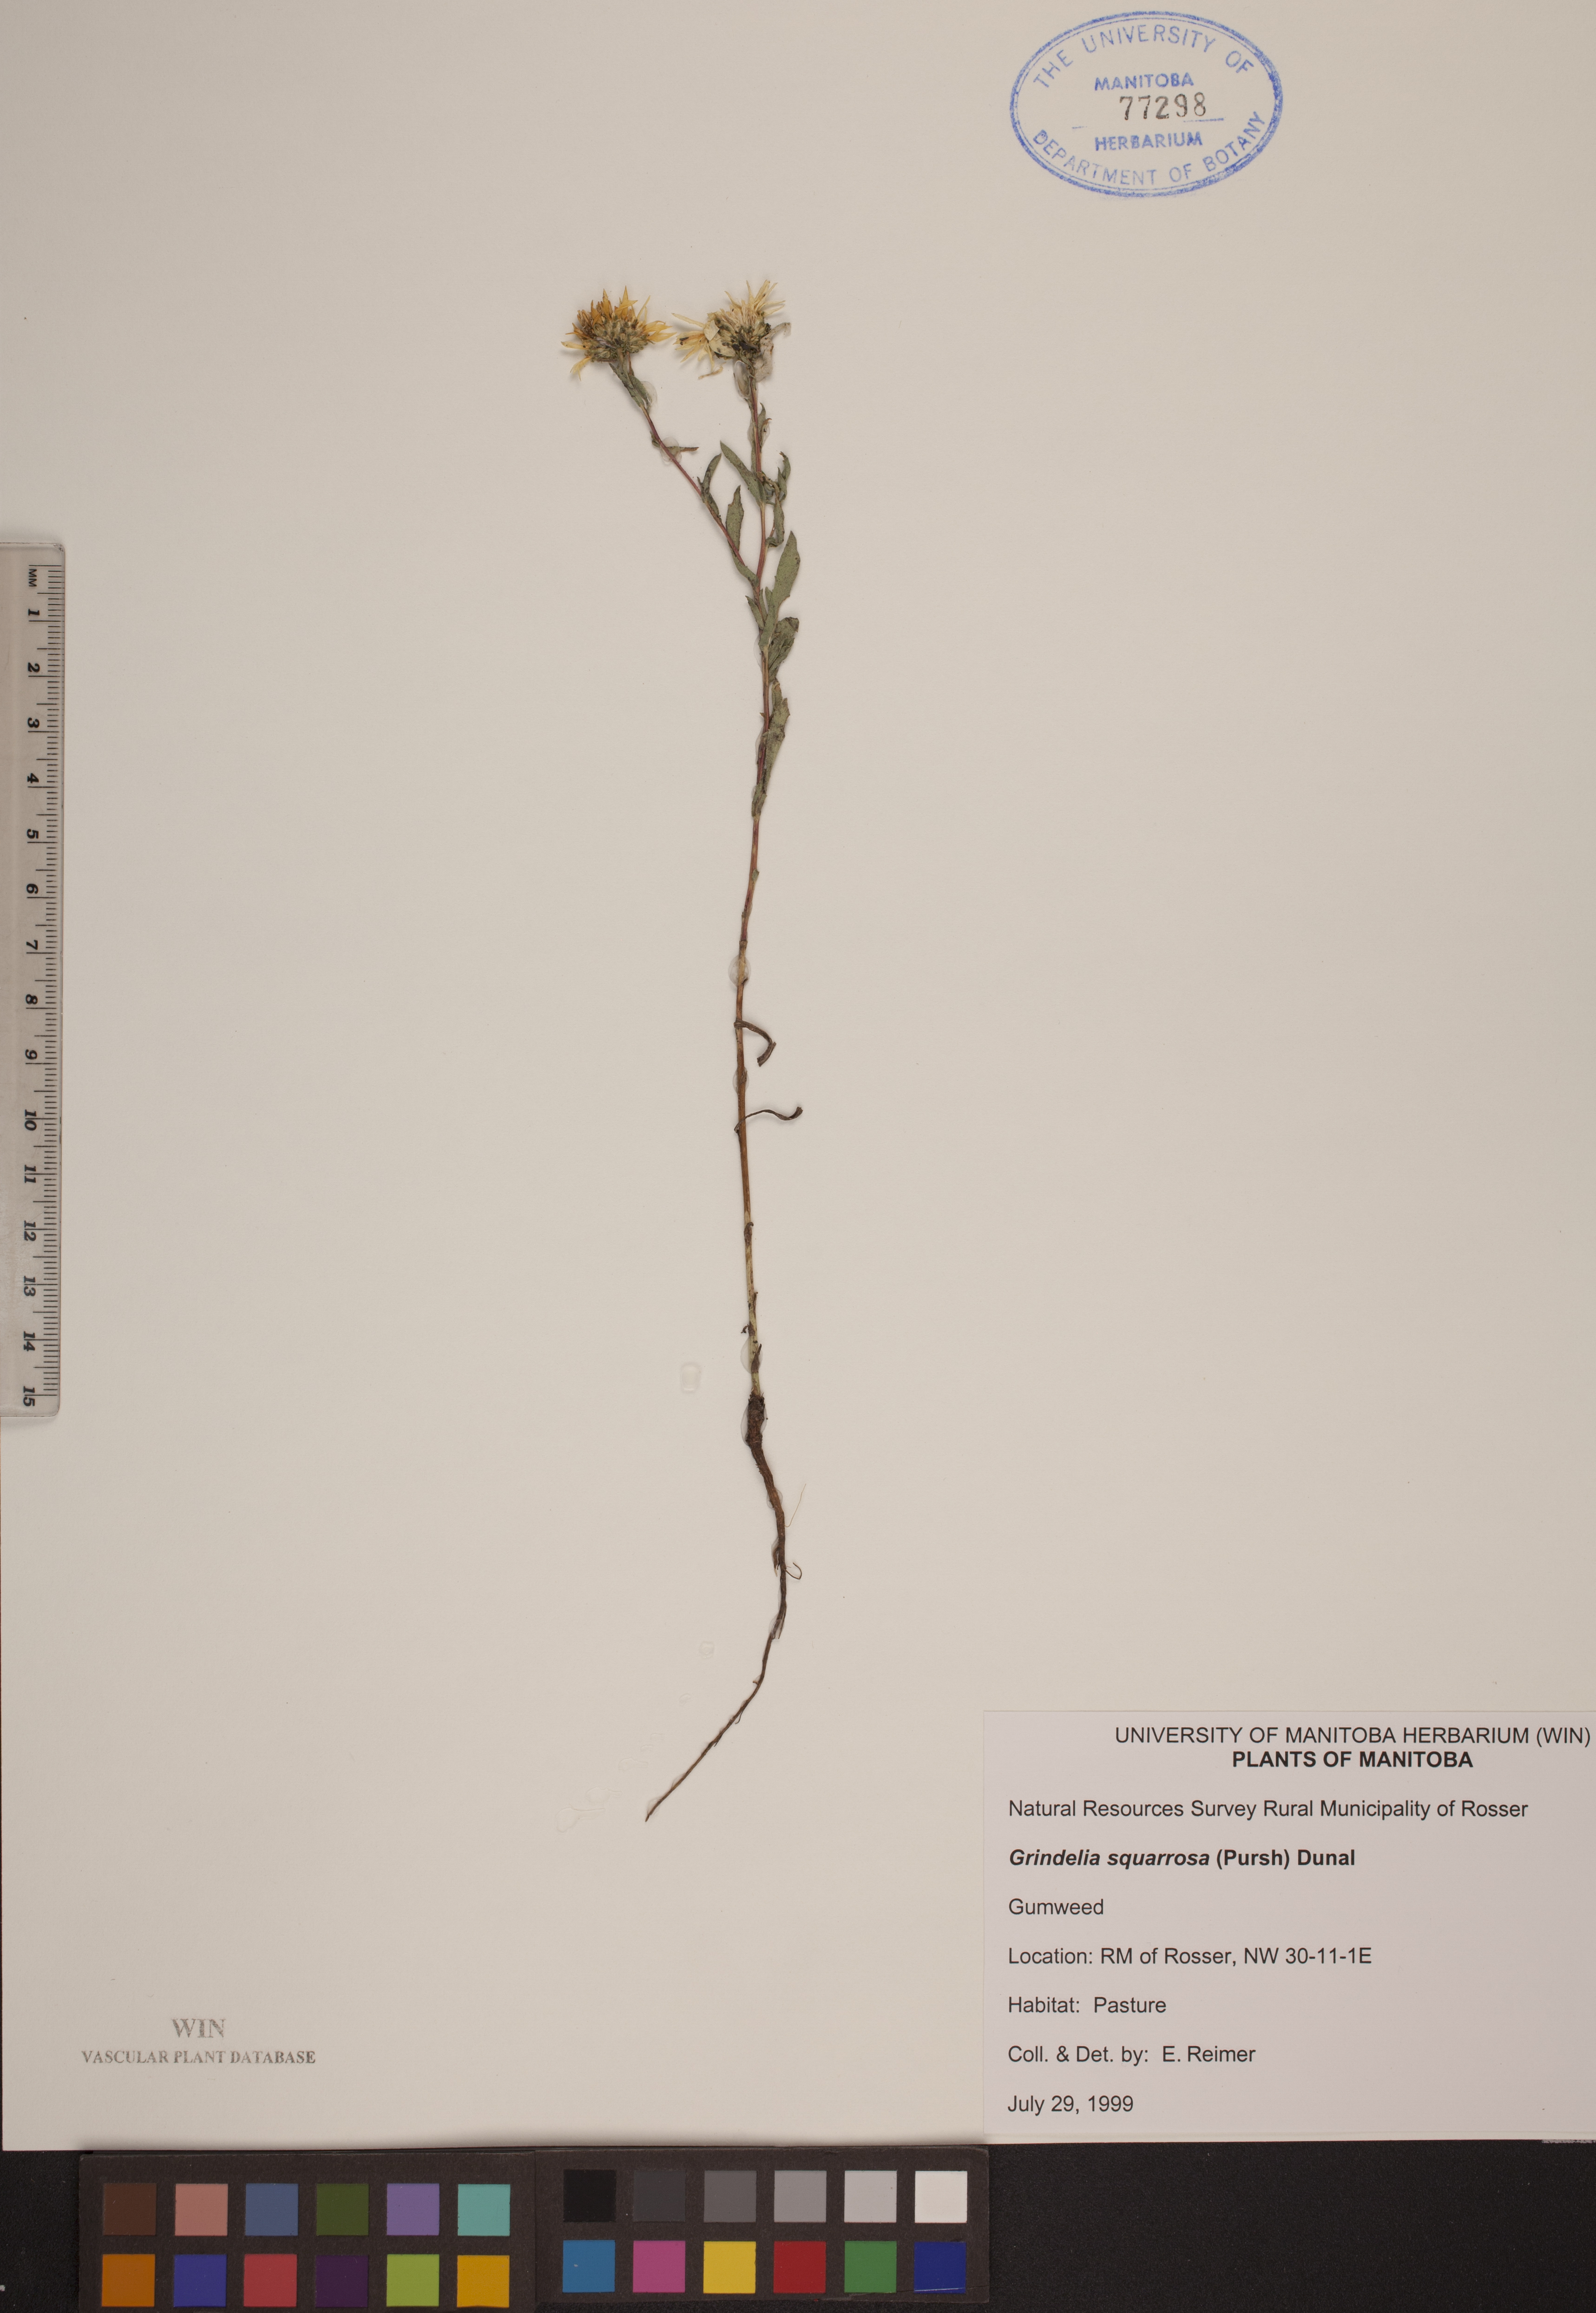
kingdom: Plantae
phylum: Tracheophyta
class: Magnoliopsida
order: Asterales
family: Asteraceae
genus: Grindelia
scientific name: Grindelia squarrosa
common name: Curly-cup gumweed
